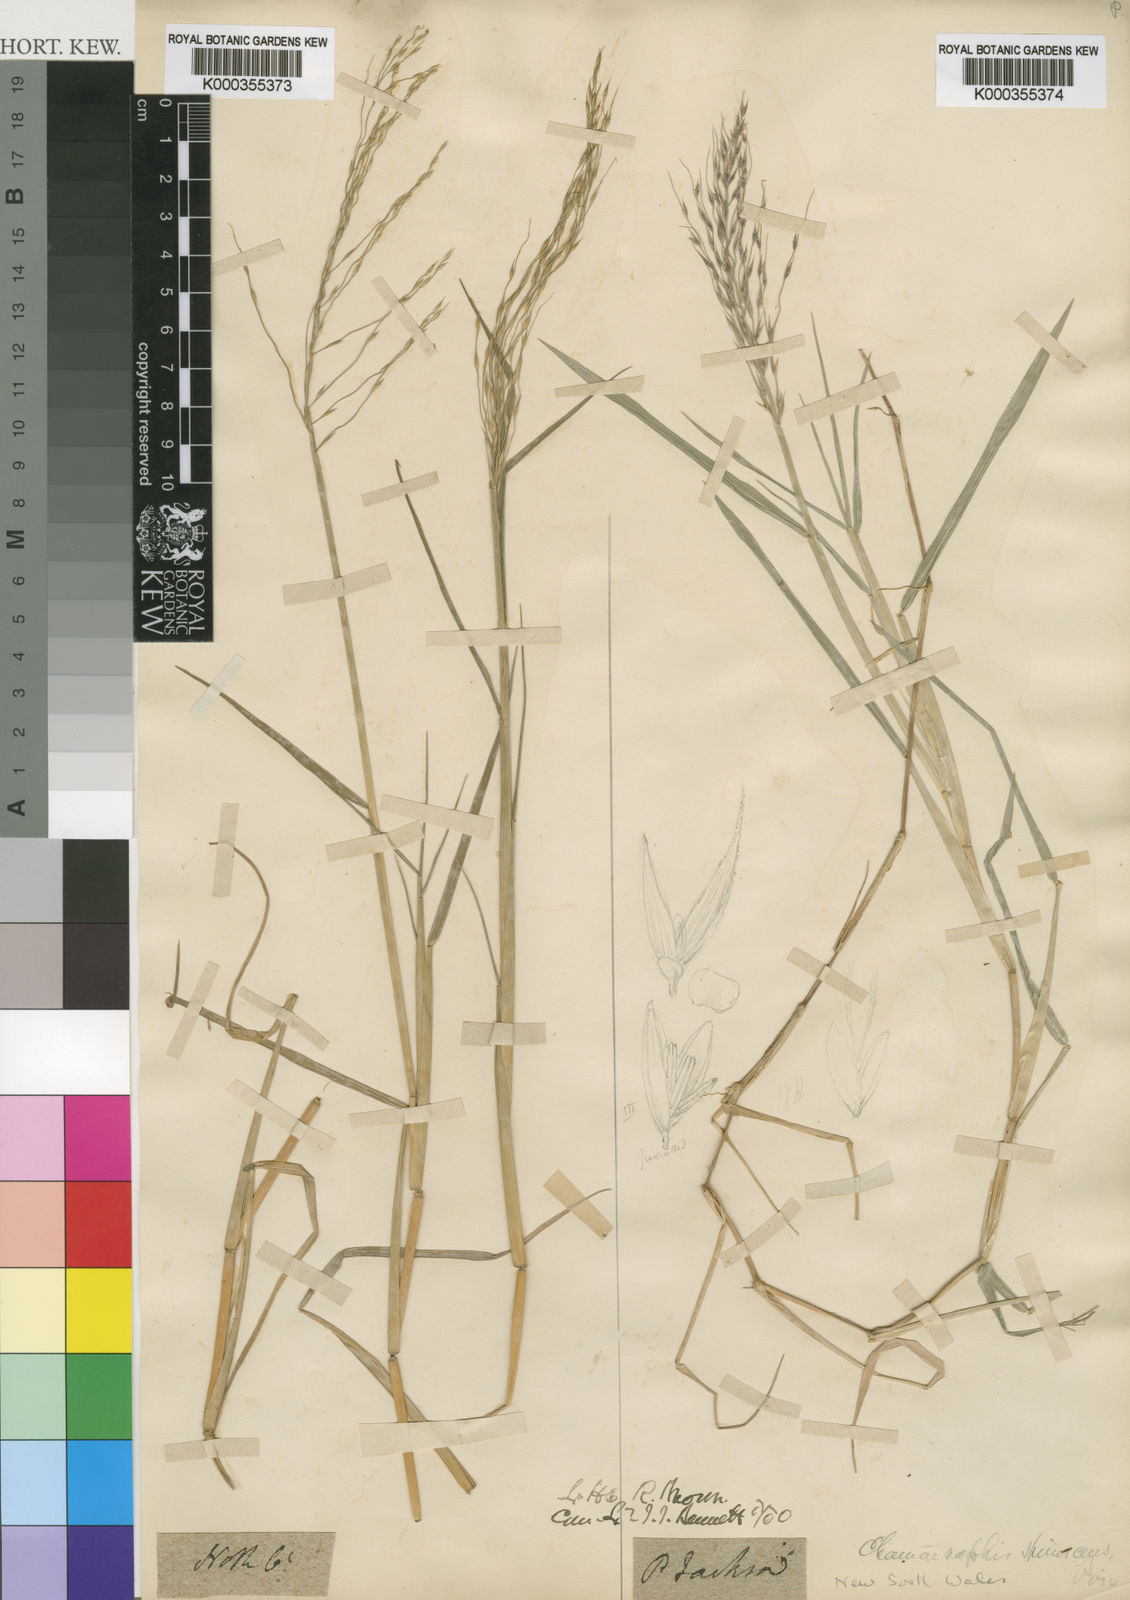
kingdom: Plantae
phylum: Tracheophyta
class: Liliopsida
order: Poales
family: Poaceae
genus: Pseudoraphis
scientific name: Pseudoraphis spinescens
